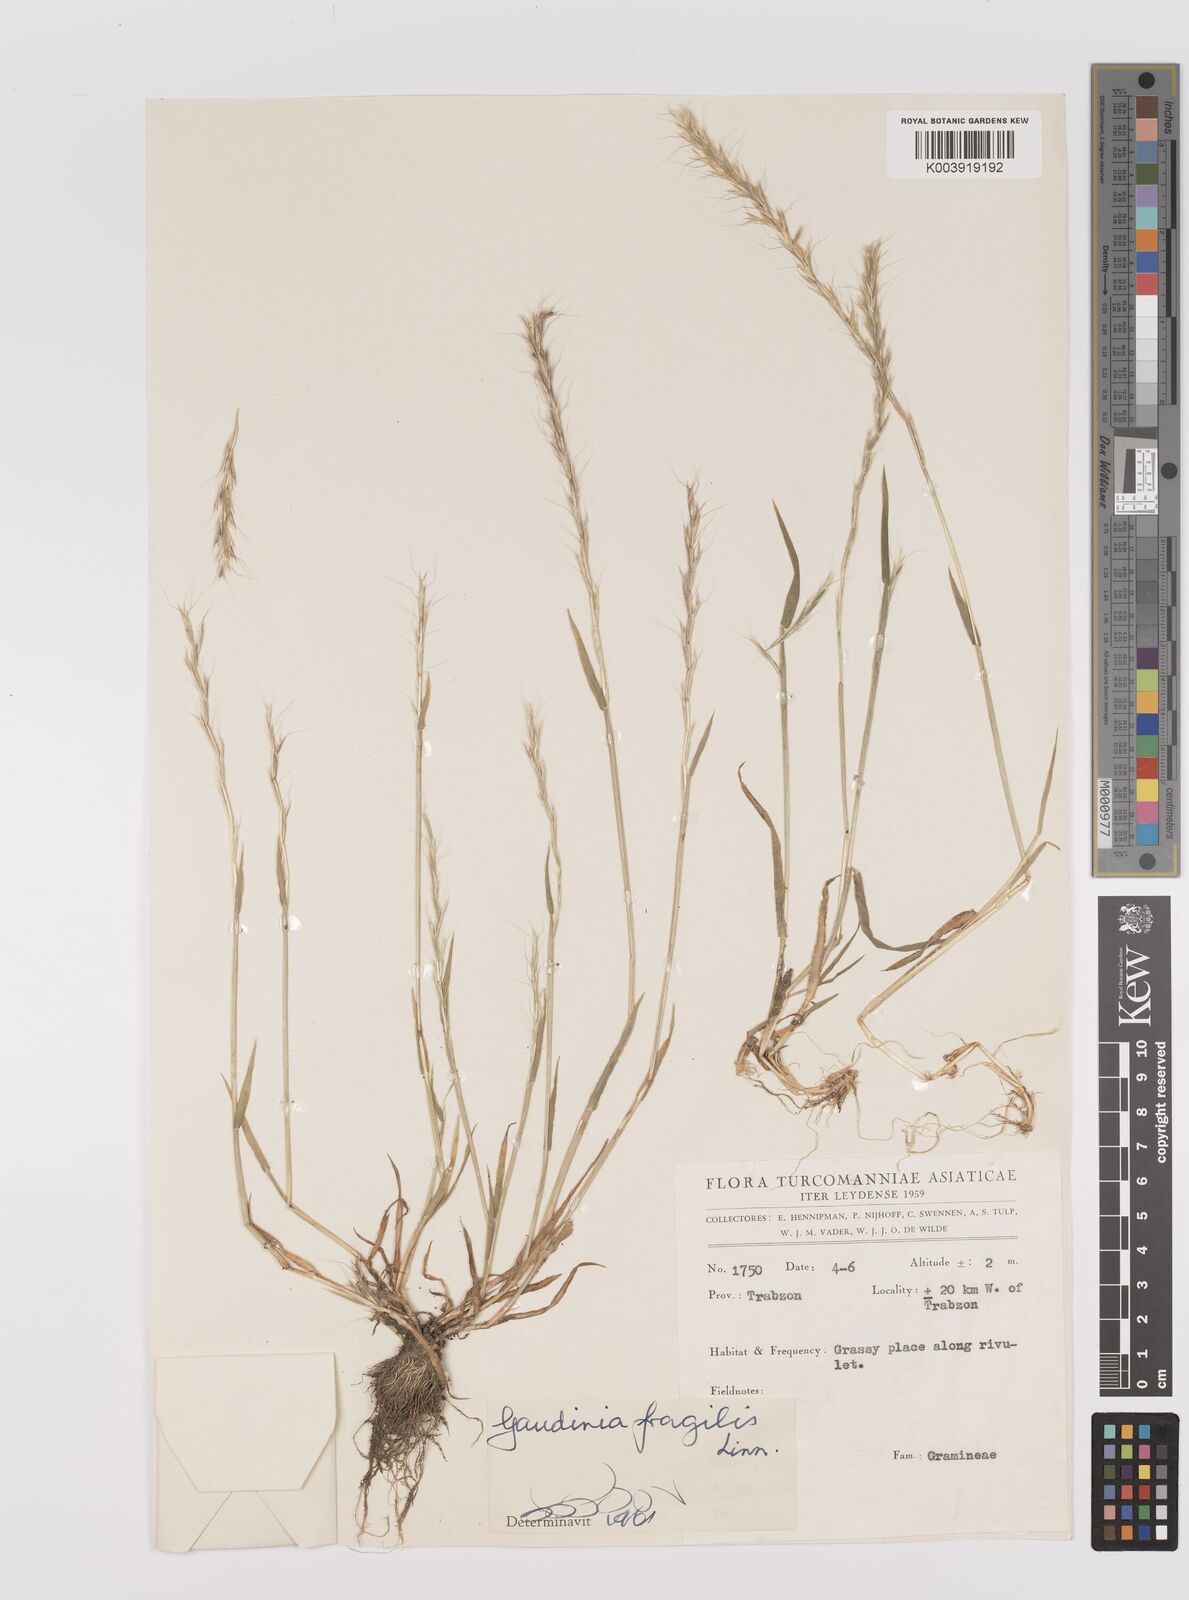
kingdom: Plantae
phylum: Tracheophyta
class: Liliopsida
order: Poales
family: Poaceae
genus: Gaudinia
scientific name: Gaudinia fragilis
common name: French oat-grass
